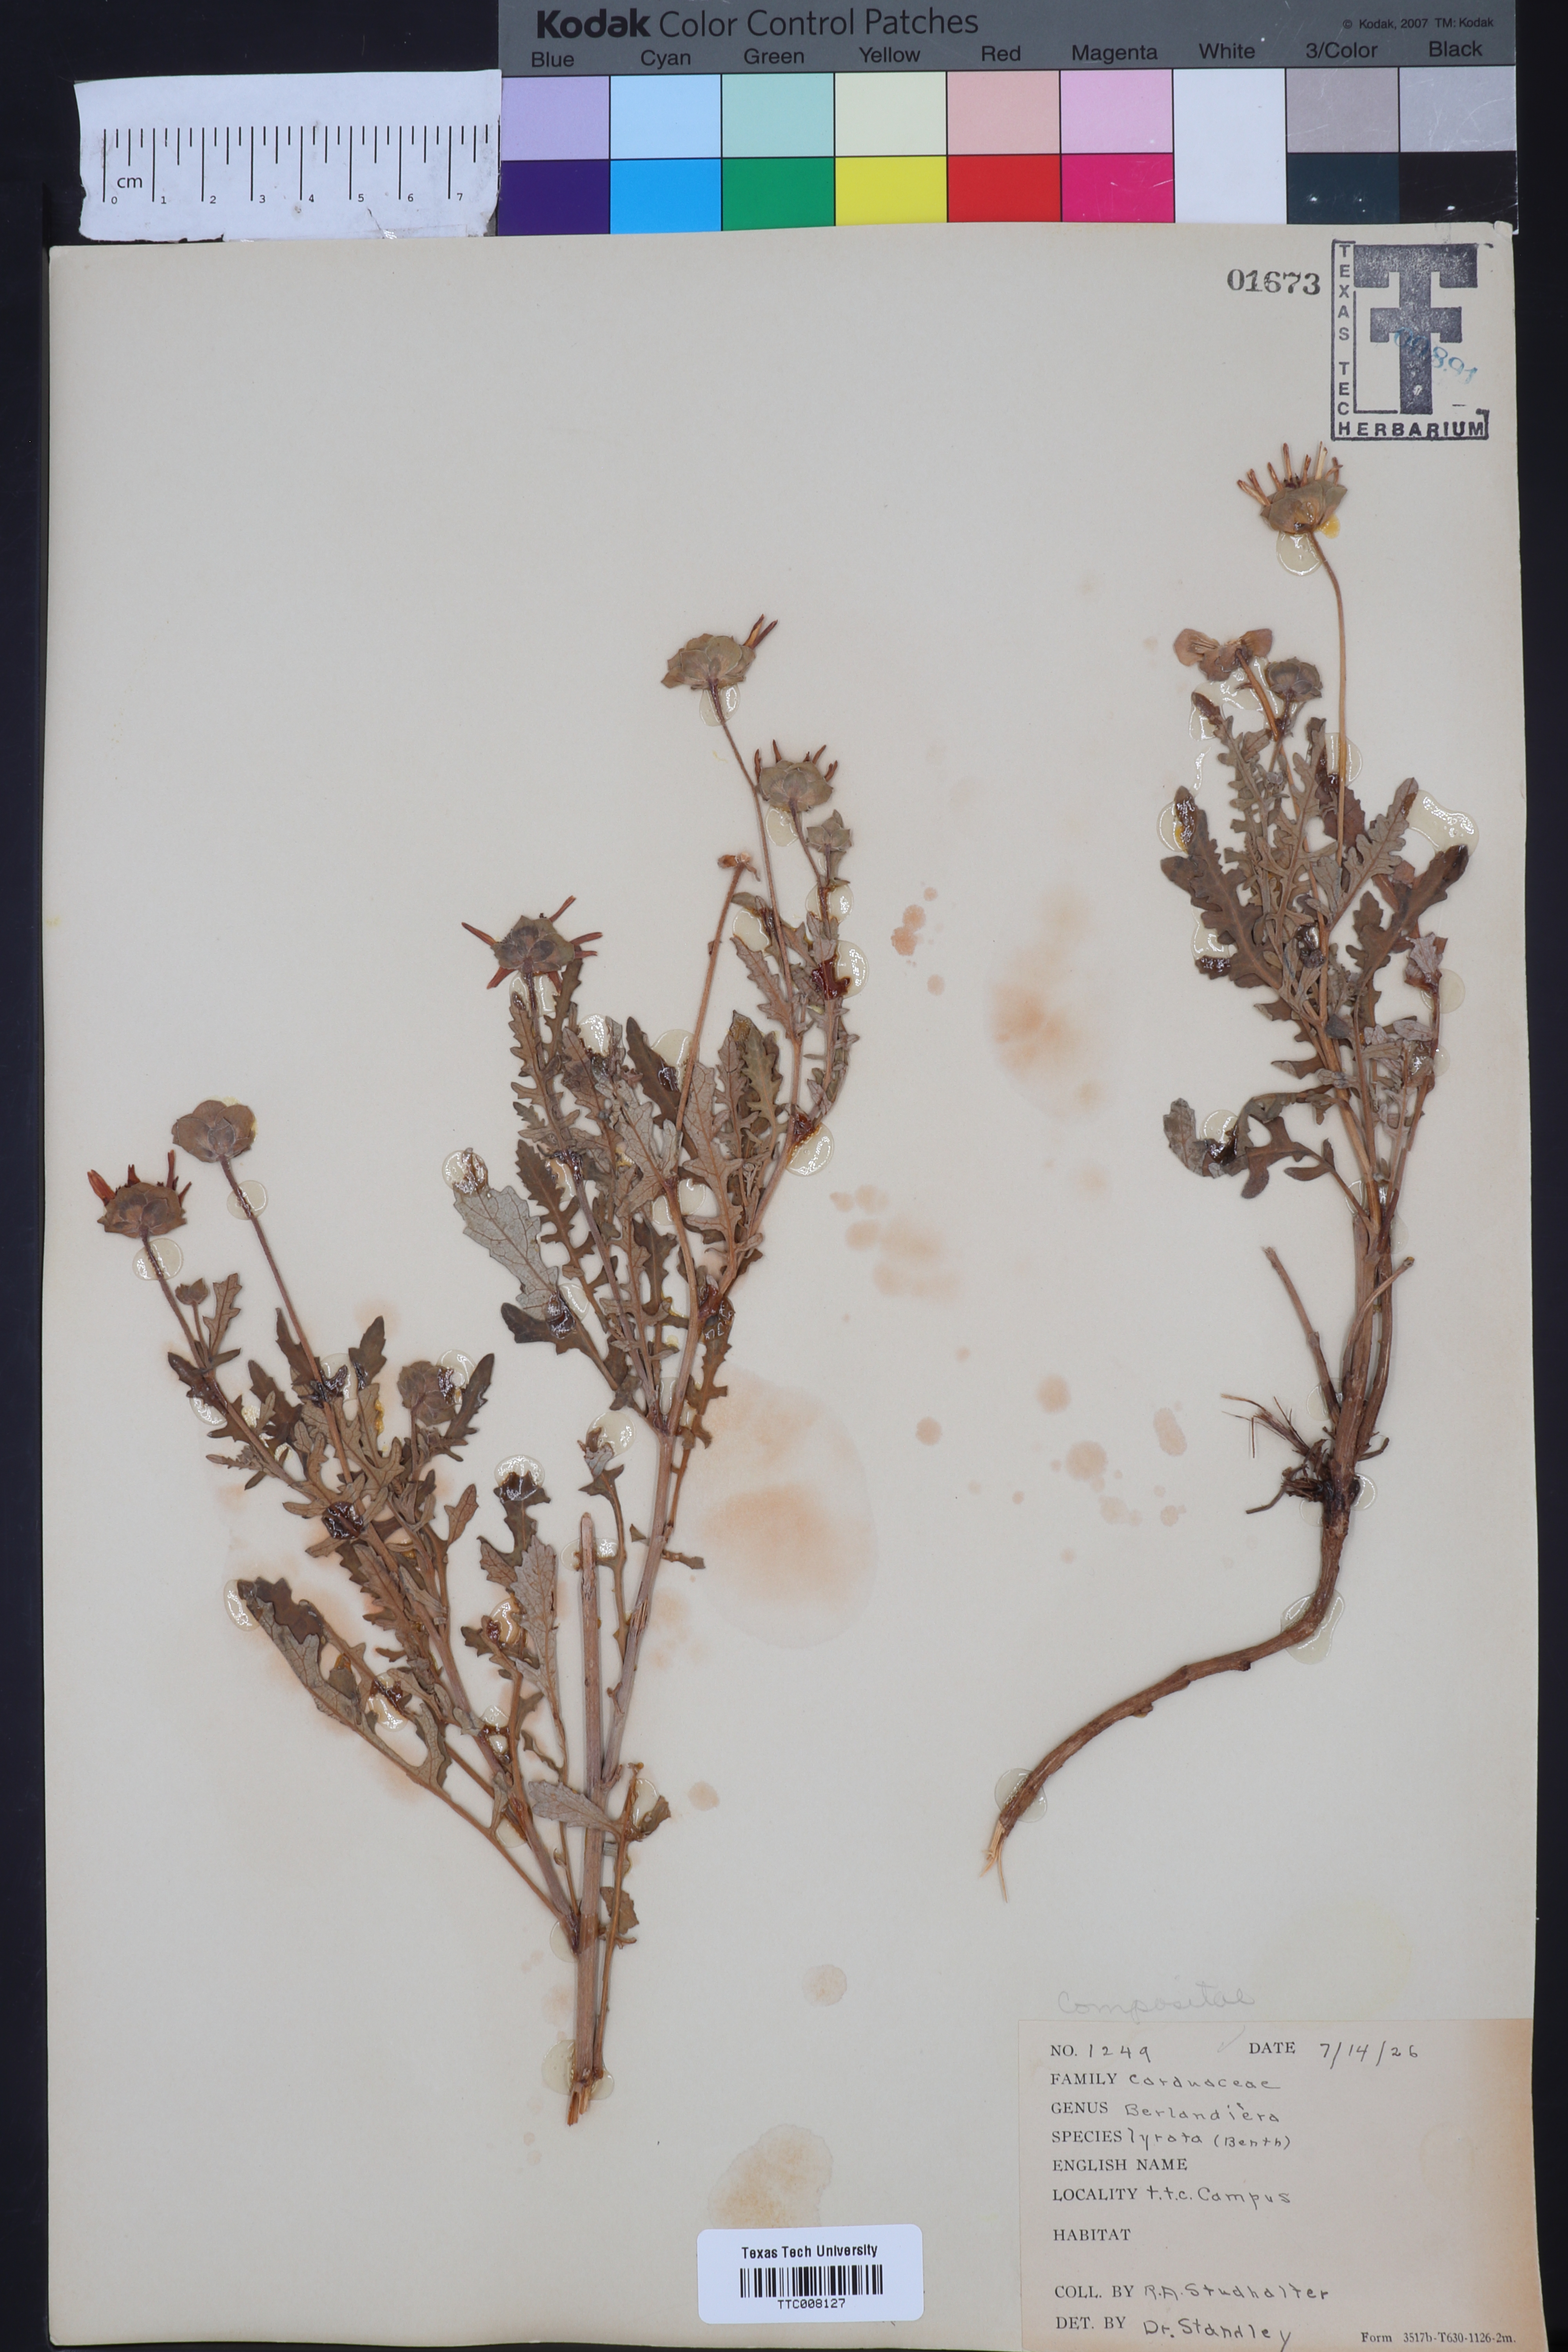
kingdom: Plantae
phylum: Tracheophyta
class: Magnoliopsida
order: Asterales
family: Asteraceae
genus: Berlandiera
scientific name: Berlandiera lyrata
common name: Chocolate-flower
